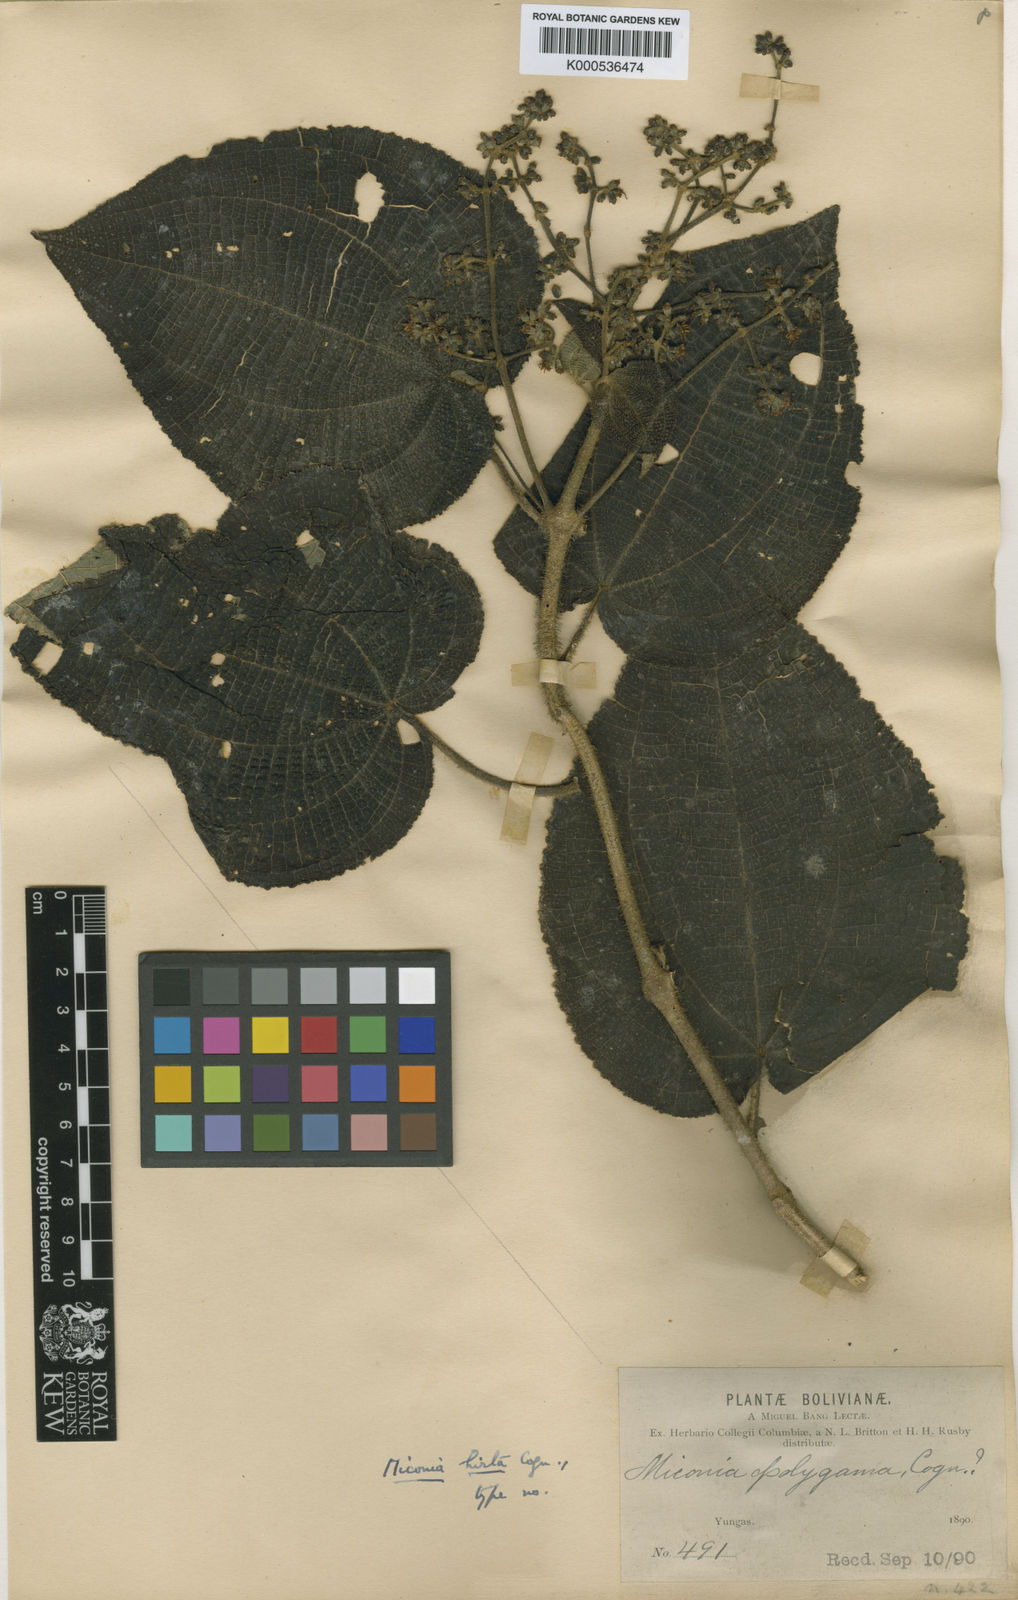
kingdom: Plantae
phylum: Tracheophyta
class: Magnoliopsida
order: Myrtales
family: Melastomataceae
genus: Miconia
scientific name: Miconia hirta
